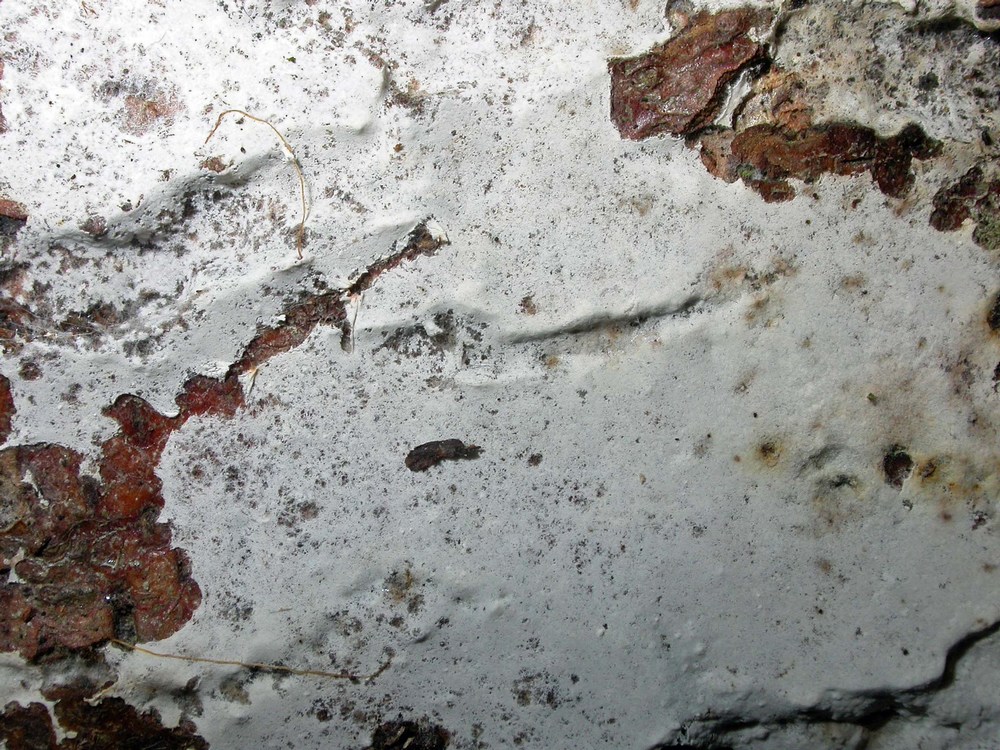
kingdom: Fungi
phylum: Basidiomycota
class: Agaricomycetes
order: Atheliales
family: Atheliaceae
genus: Athelia
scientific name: Athelia epiphylla
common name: almindelig barkhinde
